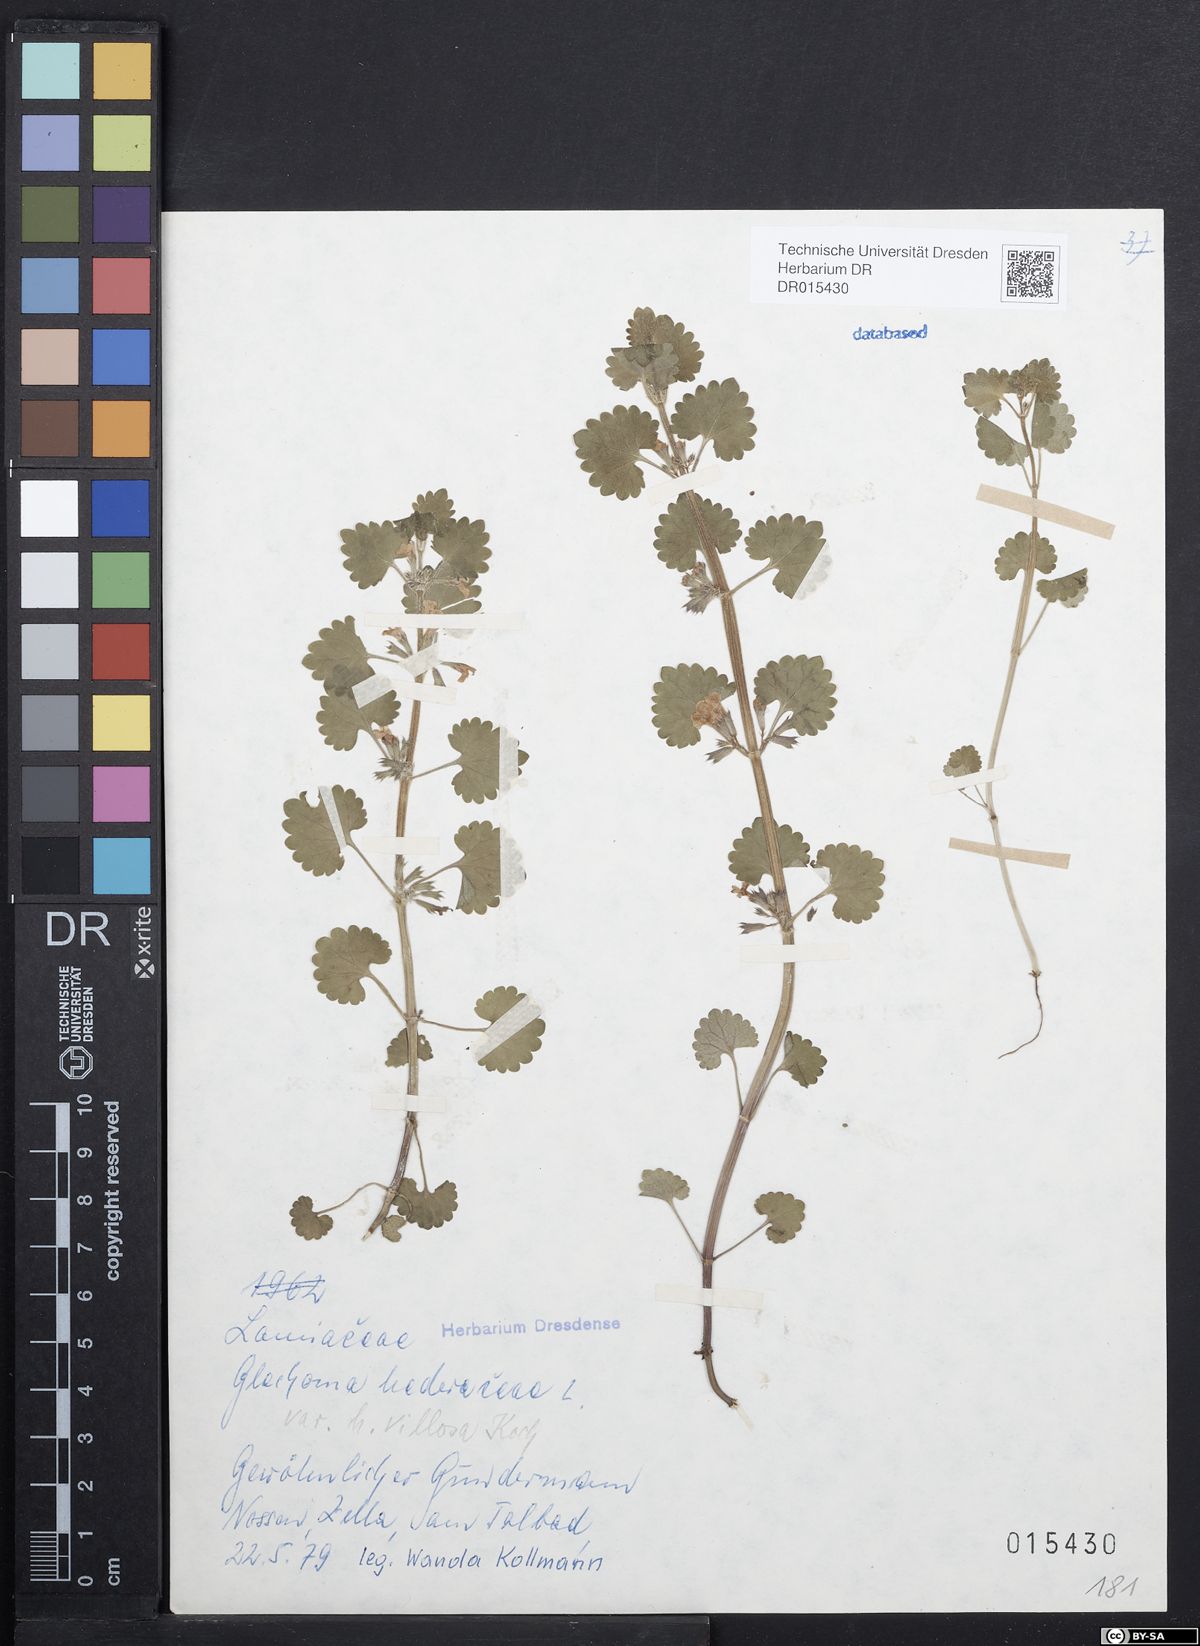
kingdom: Plantae
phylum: Tracheophyta
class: Magnoliopsida
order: Lamiales
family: Lamiaceae
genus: Glechoma
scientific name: Glechoma hederacea
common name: Ground ivy
